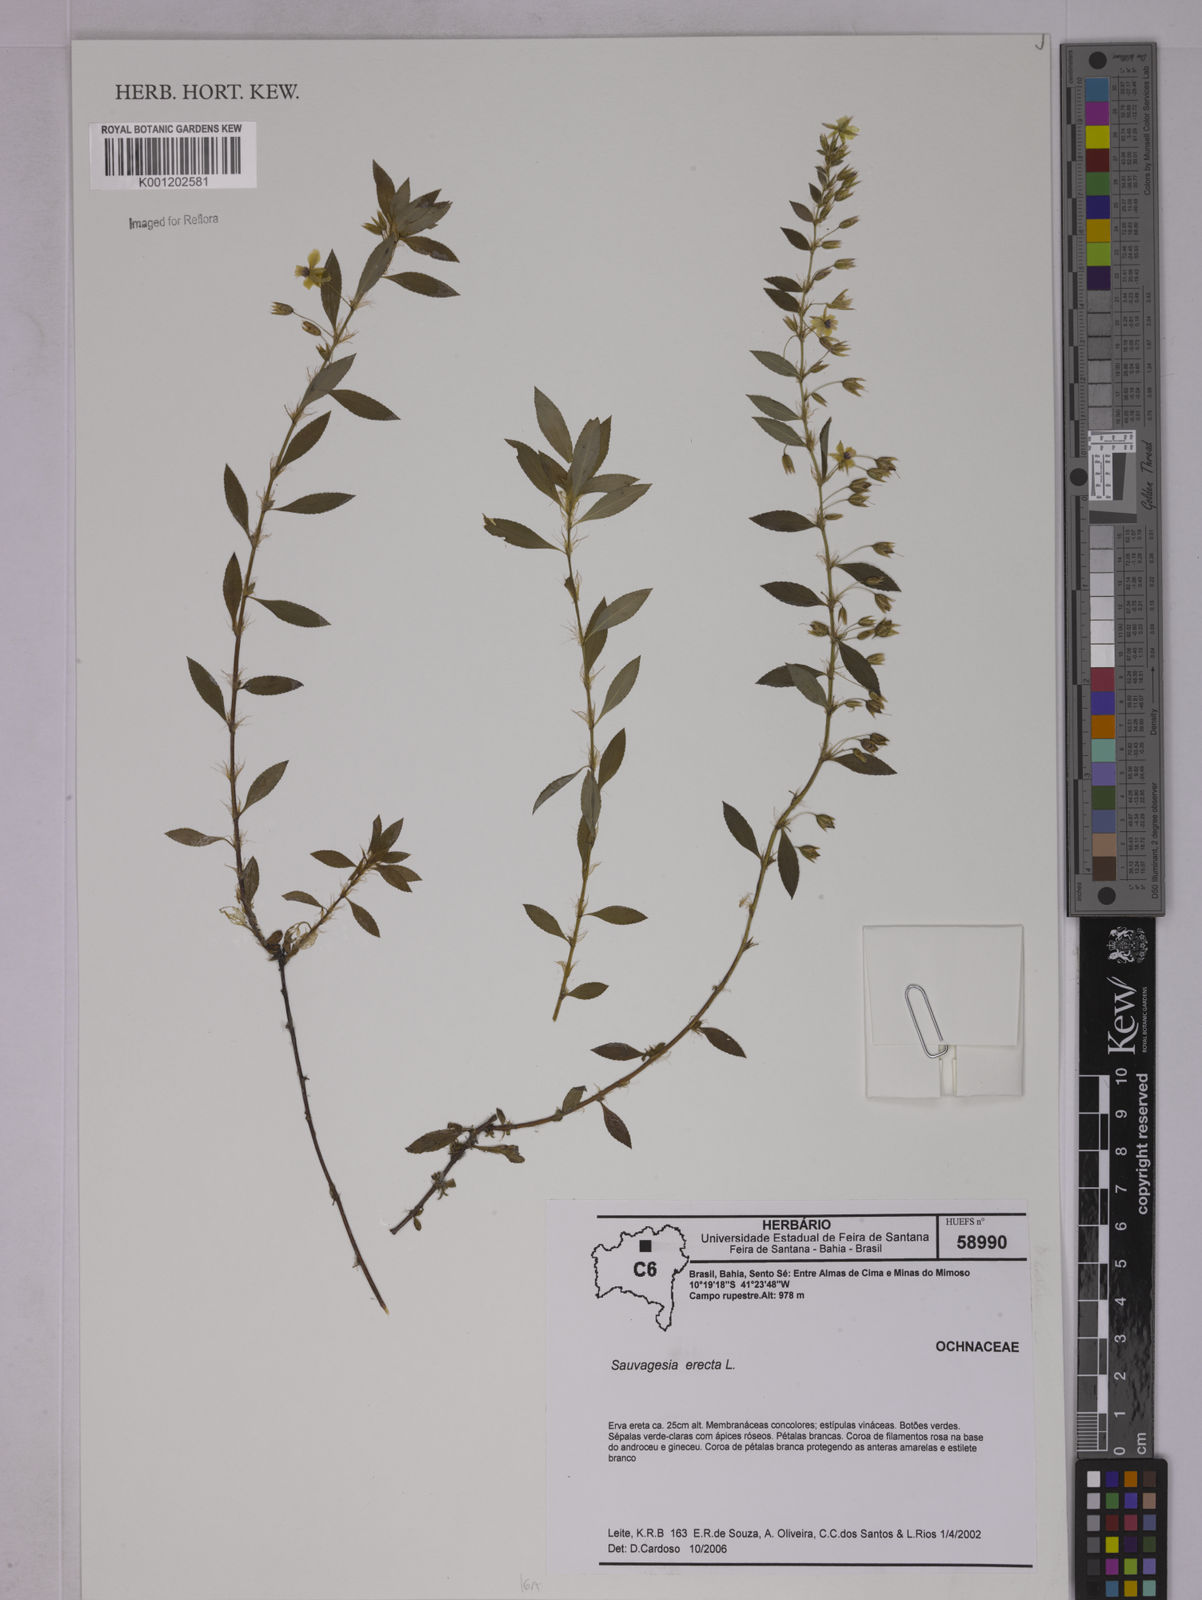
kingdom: Plantae
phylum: Tracheophyta
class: Magnoliopsida
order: Malpighiales
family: Ochnaceae
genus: Sauvagesia
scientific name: Sauvagesia erecta
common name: Creole tea
